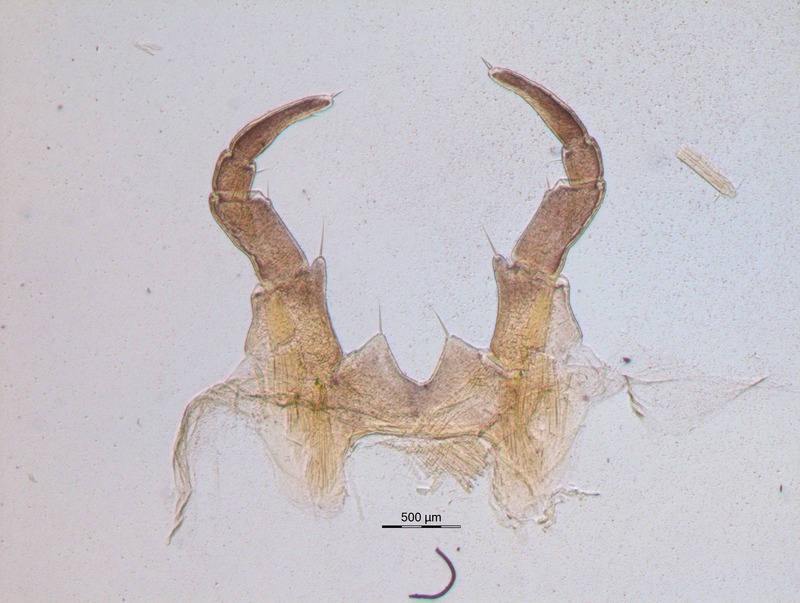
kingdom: Animalia
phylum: Arthropoda
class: Diplopoda
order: Glomerida
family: Glomeridae
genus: Glomeris
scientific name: Glomeris klugii
